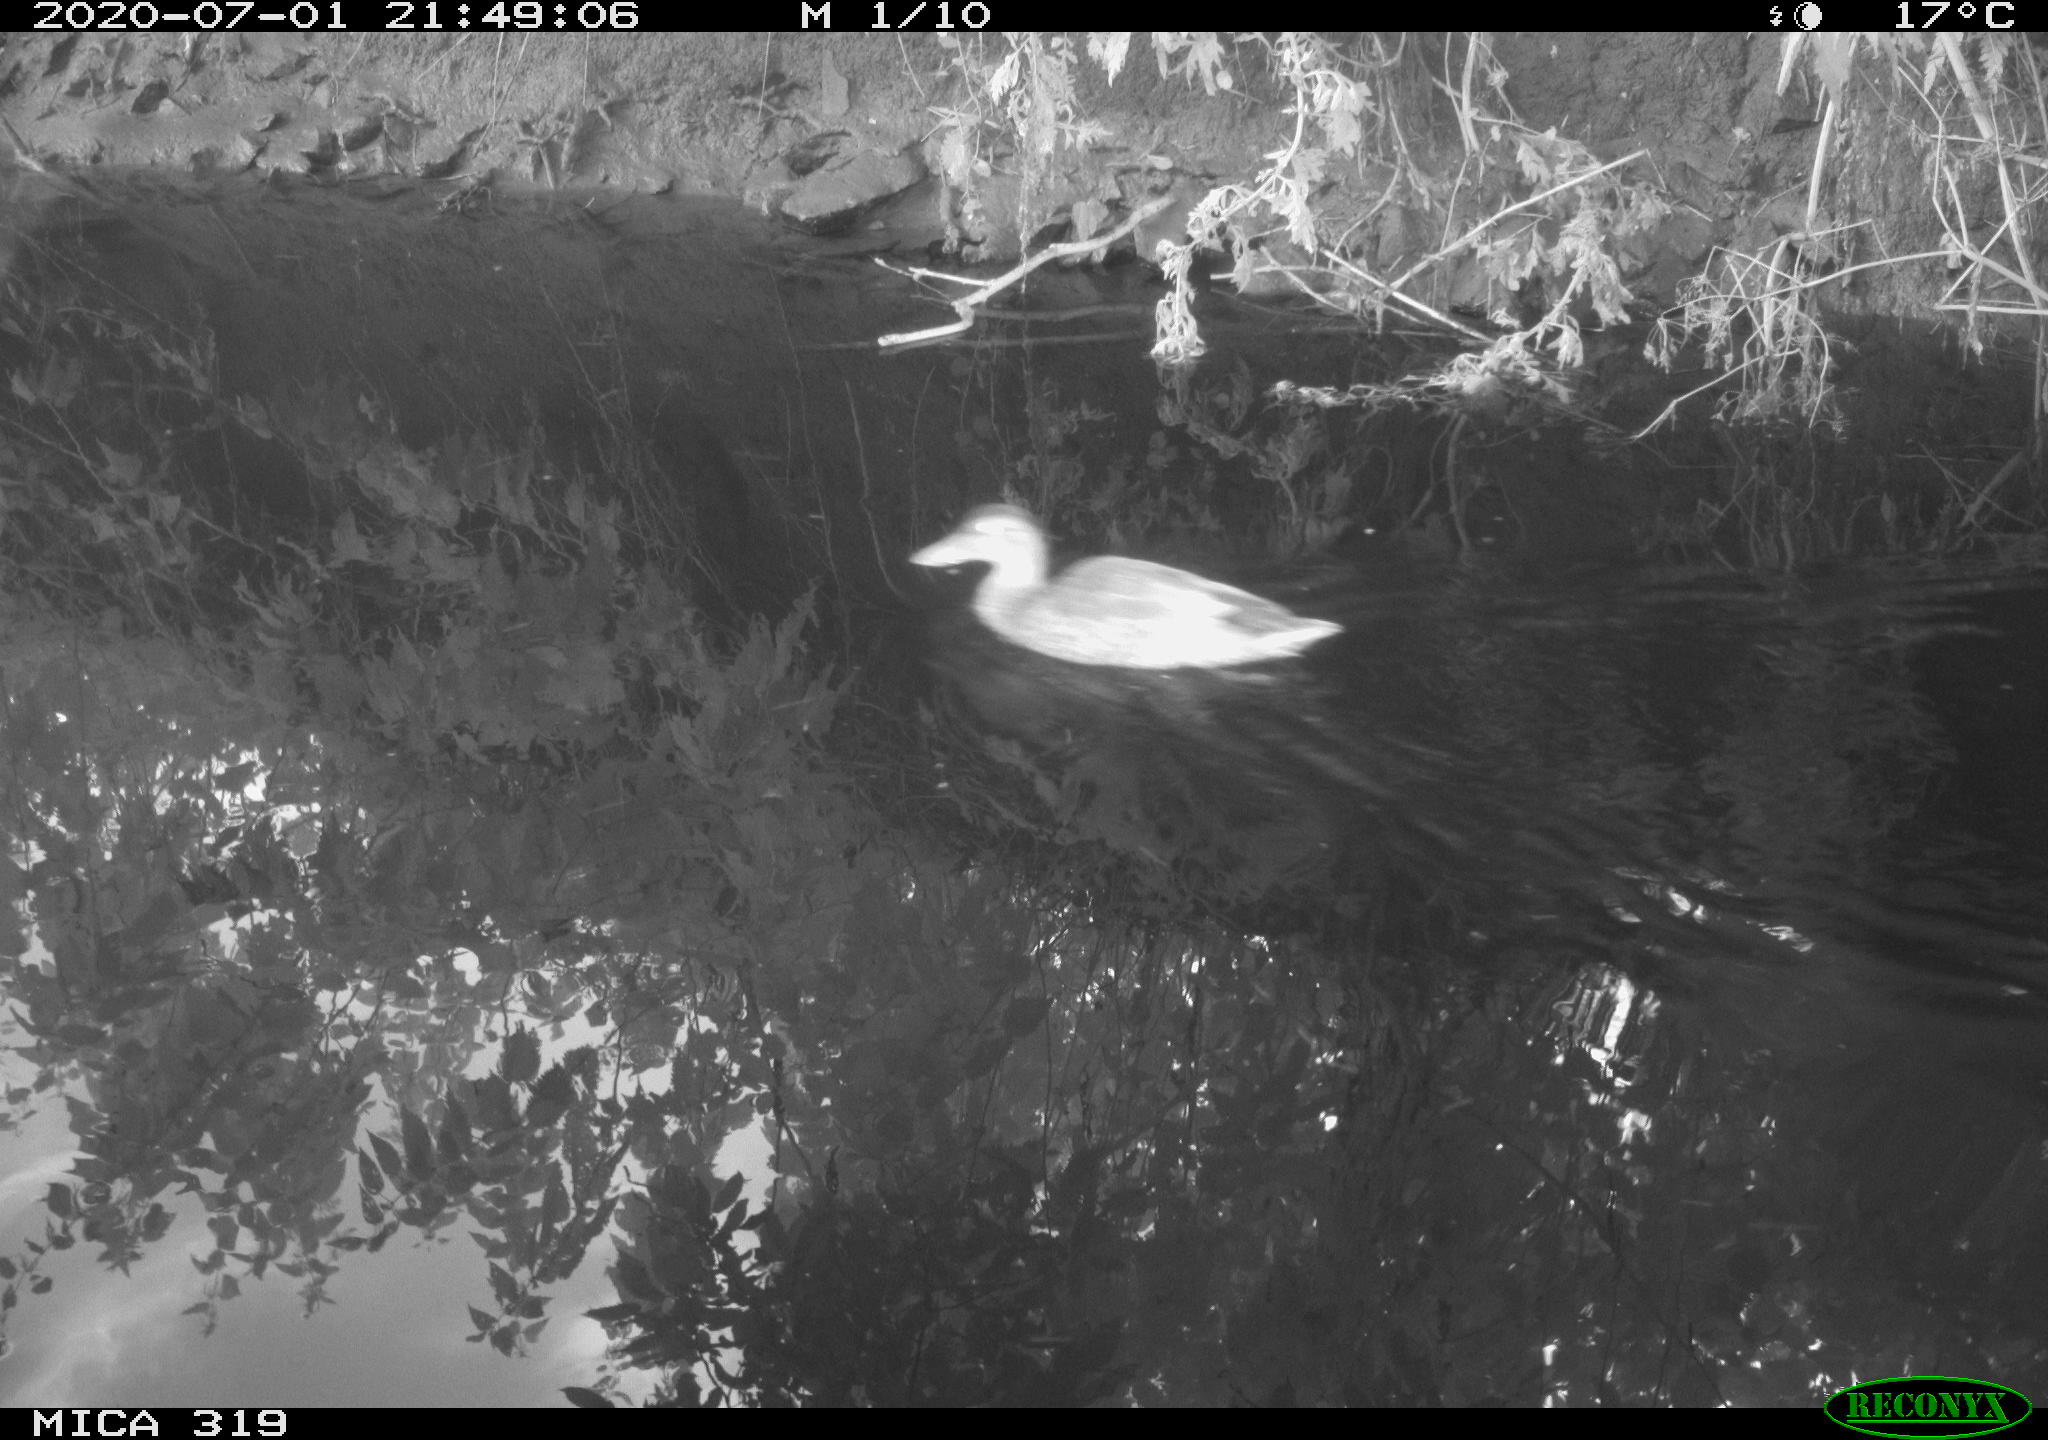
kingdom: Animalia
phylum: Chordata
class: Aves
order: Anseriformes
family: Anatidae
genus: Anas
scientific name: Anas platyrhynchos
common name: Mallard
